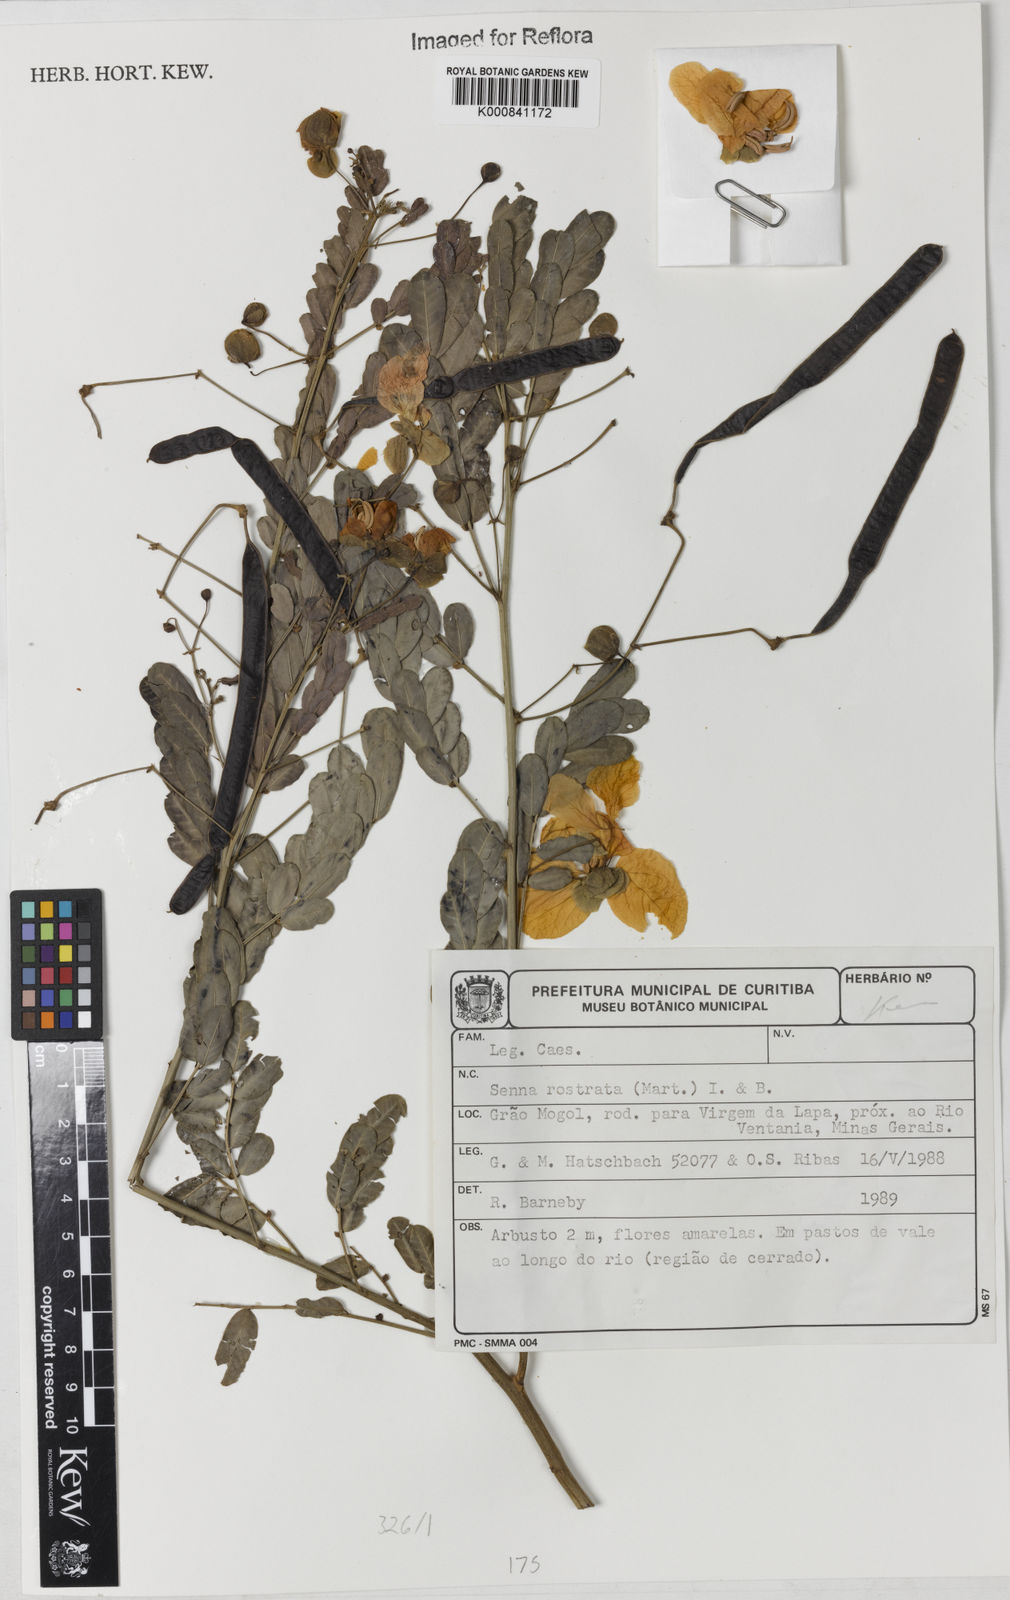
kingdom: Plantae
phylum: Tracheophyta
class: Magnoliopsida
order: Fabales
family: Fabaceae
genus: Senna
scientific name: Senna rostrata
